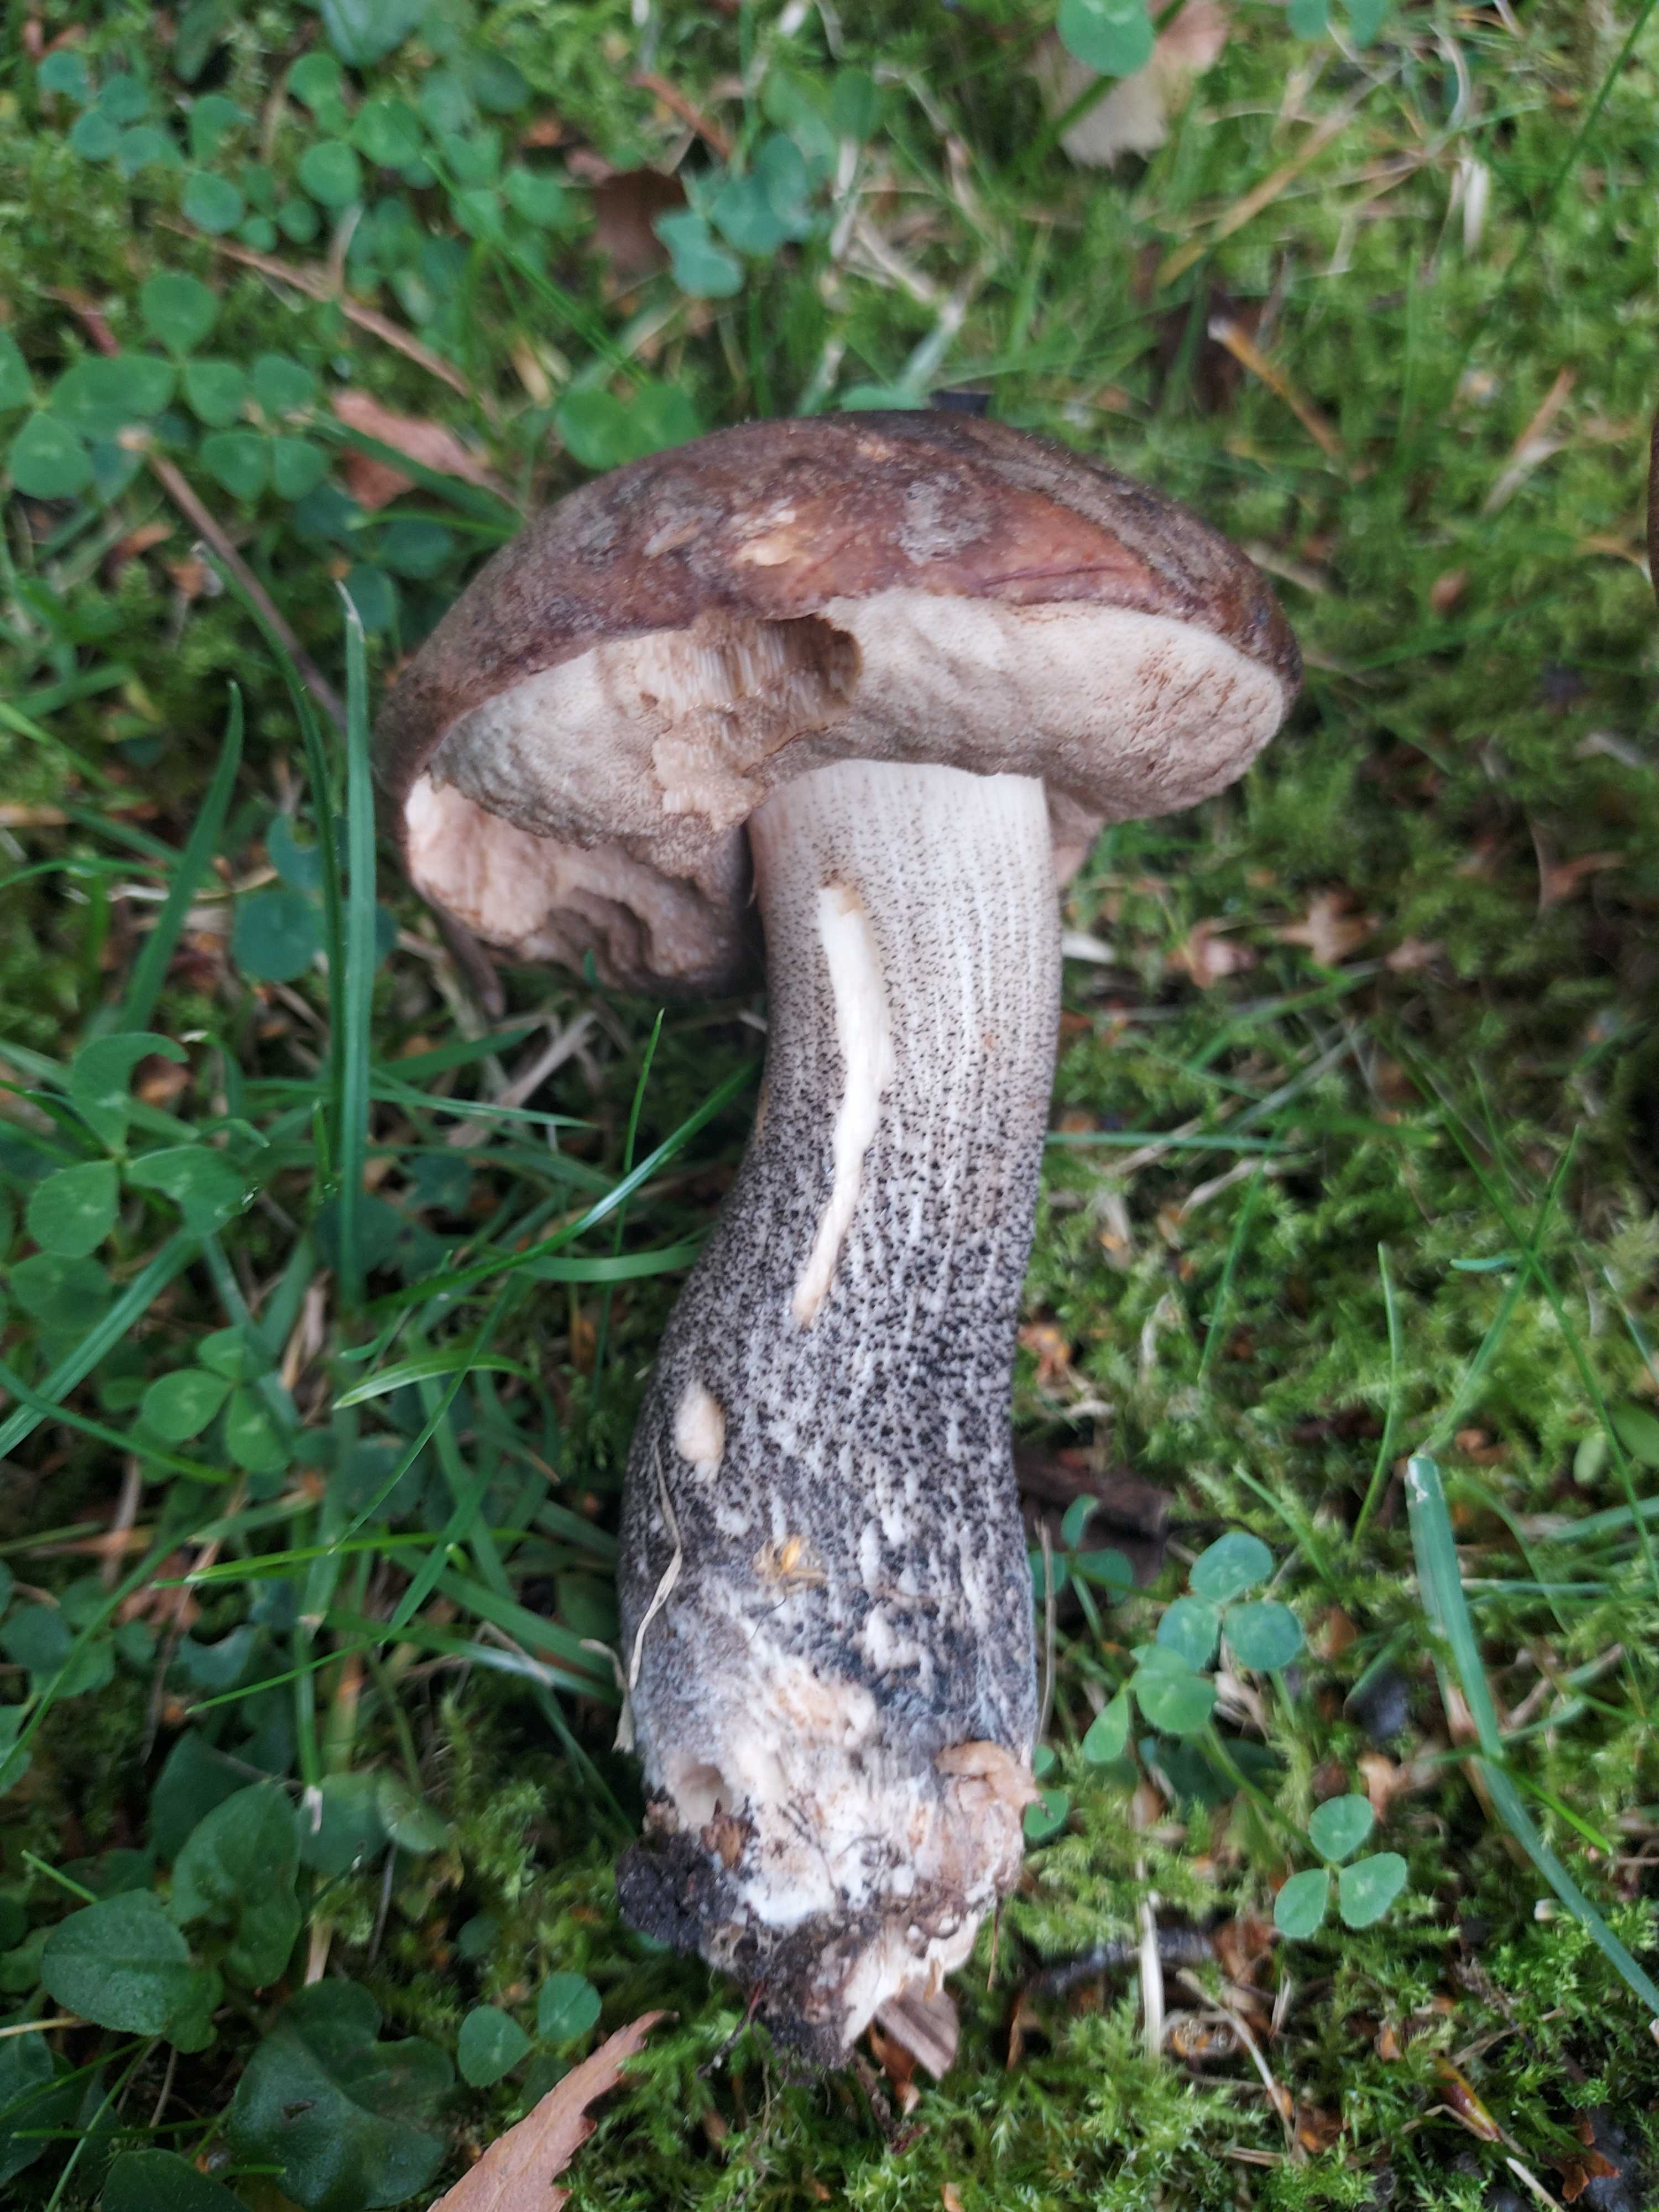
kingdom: Fungi
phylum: Basidiomycota
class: Agaricomycetes
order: Boletales
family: Boletaceae
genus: Leccinum
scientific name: Leccinum scabrum
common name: brun skælrørhat
